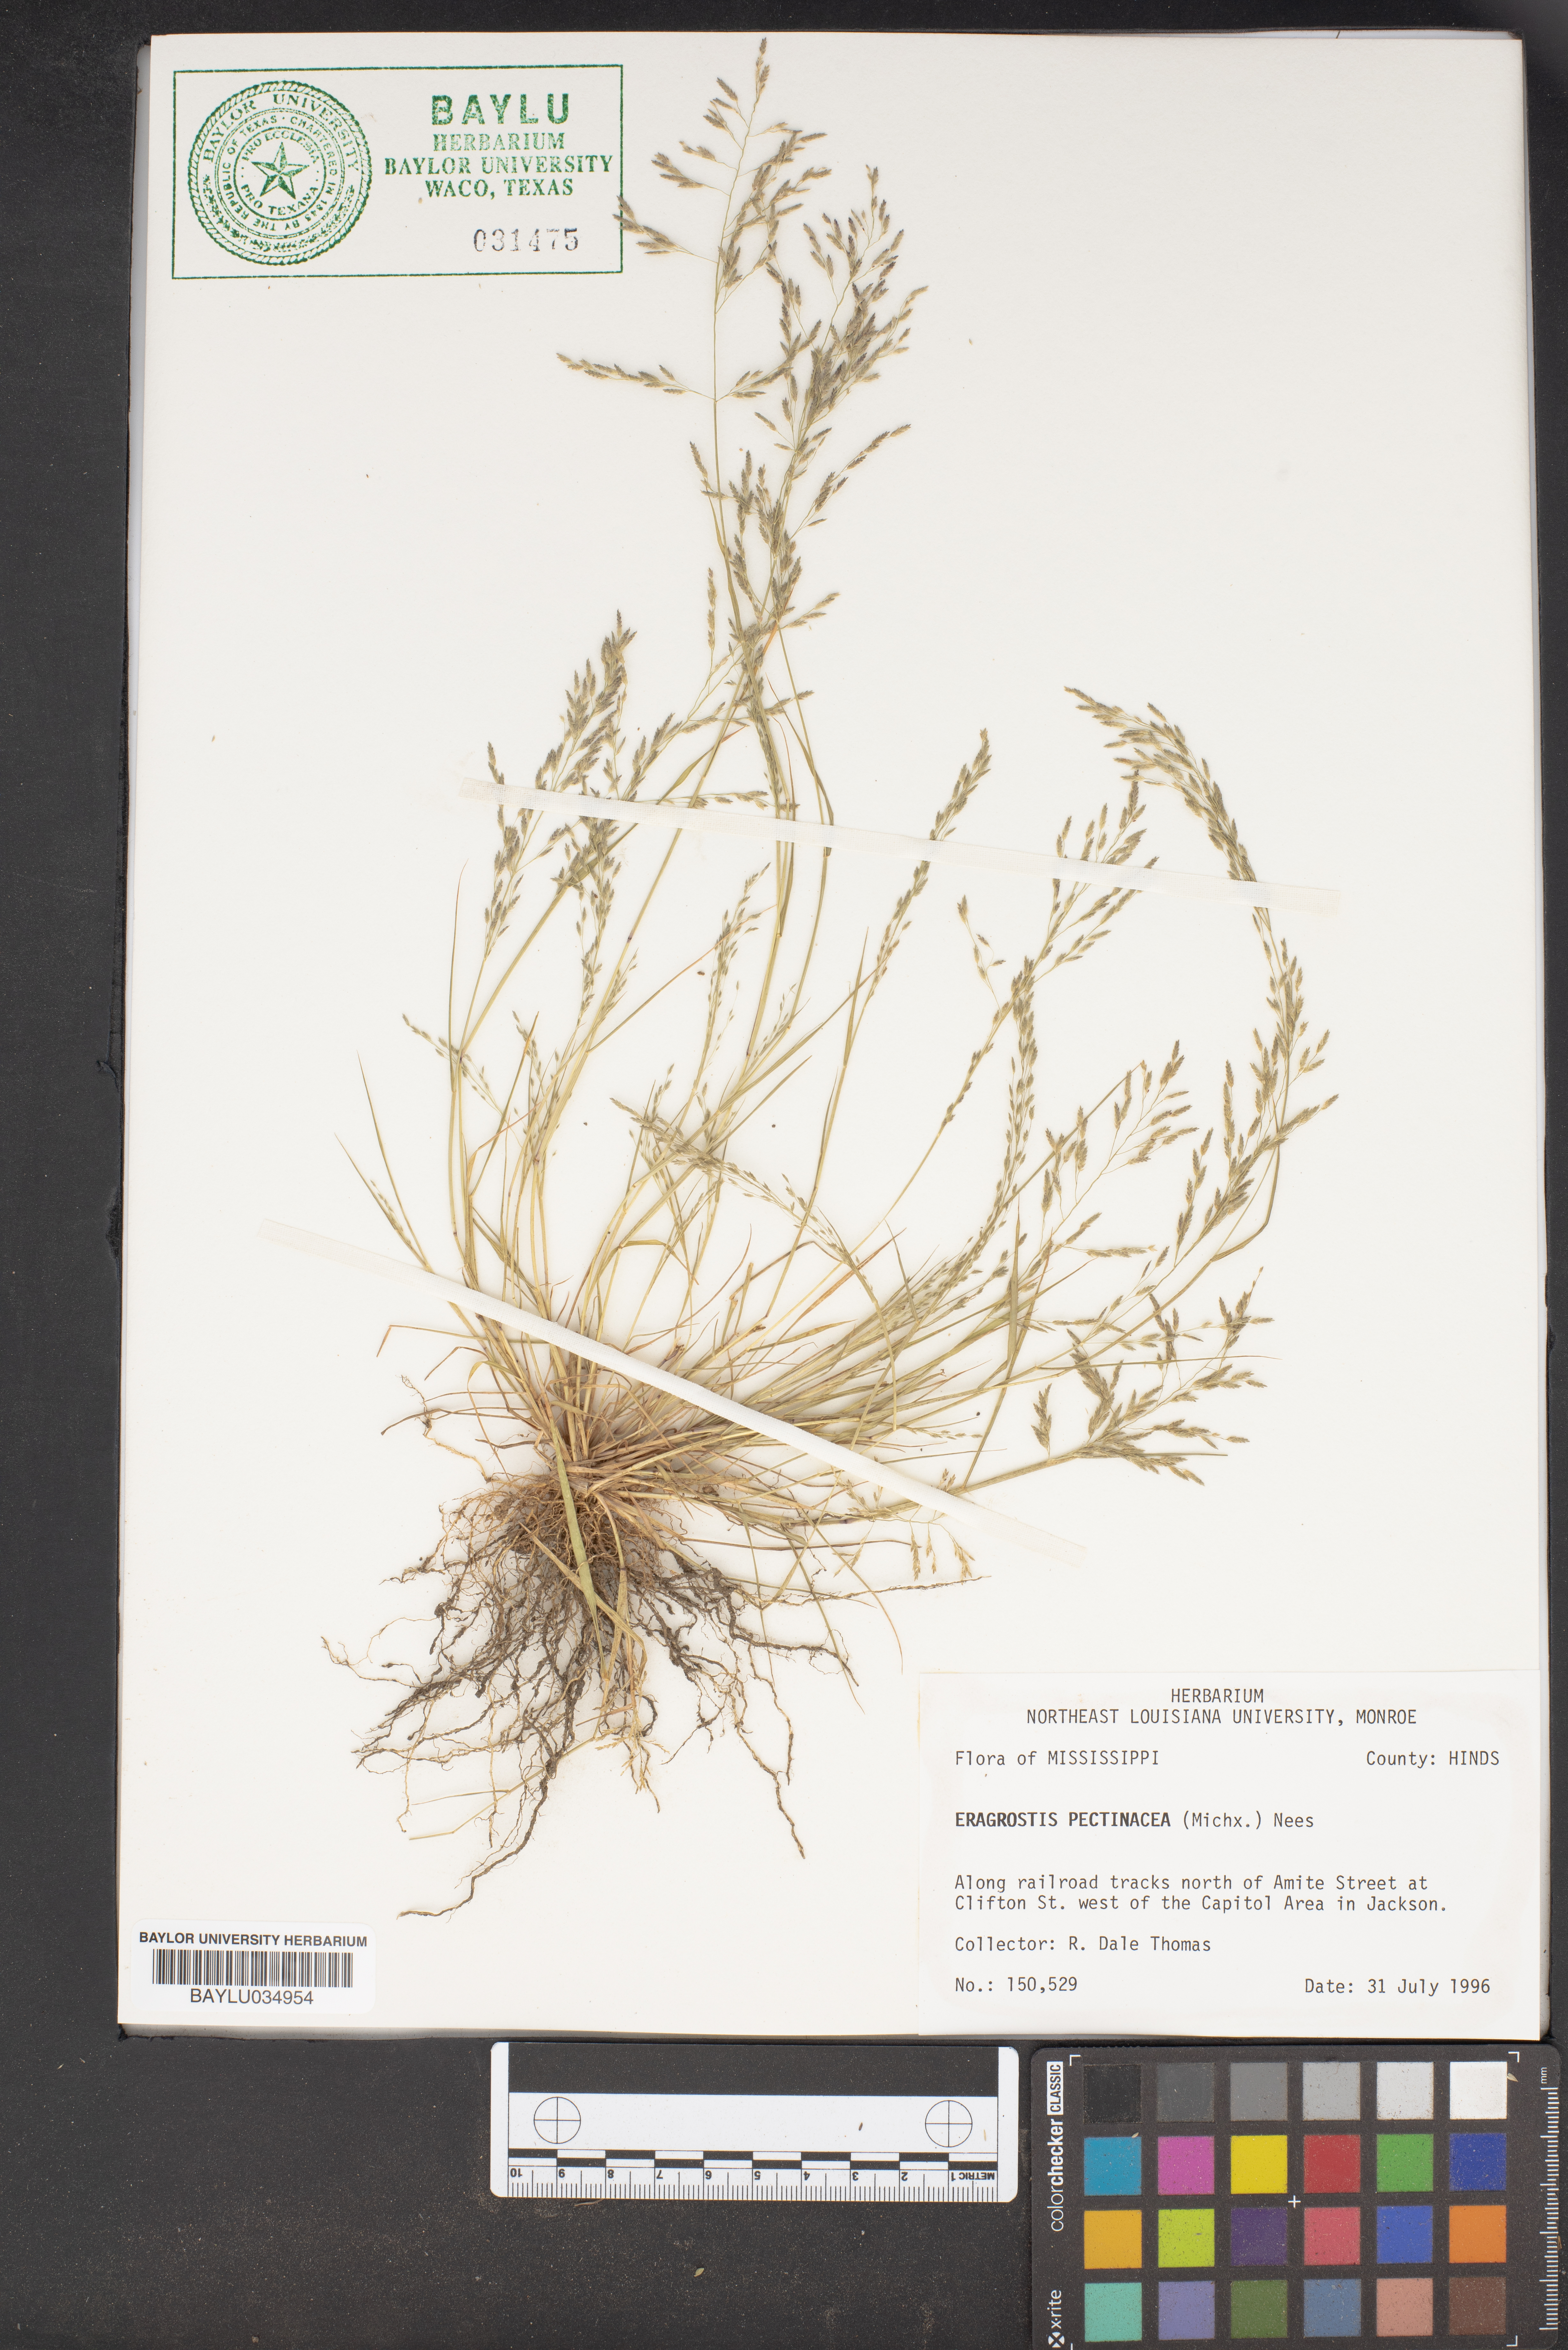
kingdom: Plantae
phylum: Tracheophyta
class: Liliopsida
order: Poales
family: Poaceae
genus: Eragrostis
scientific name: Eragrostis pectinacea
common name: Tufted lovegrass
